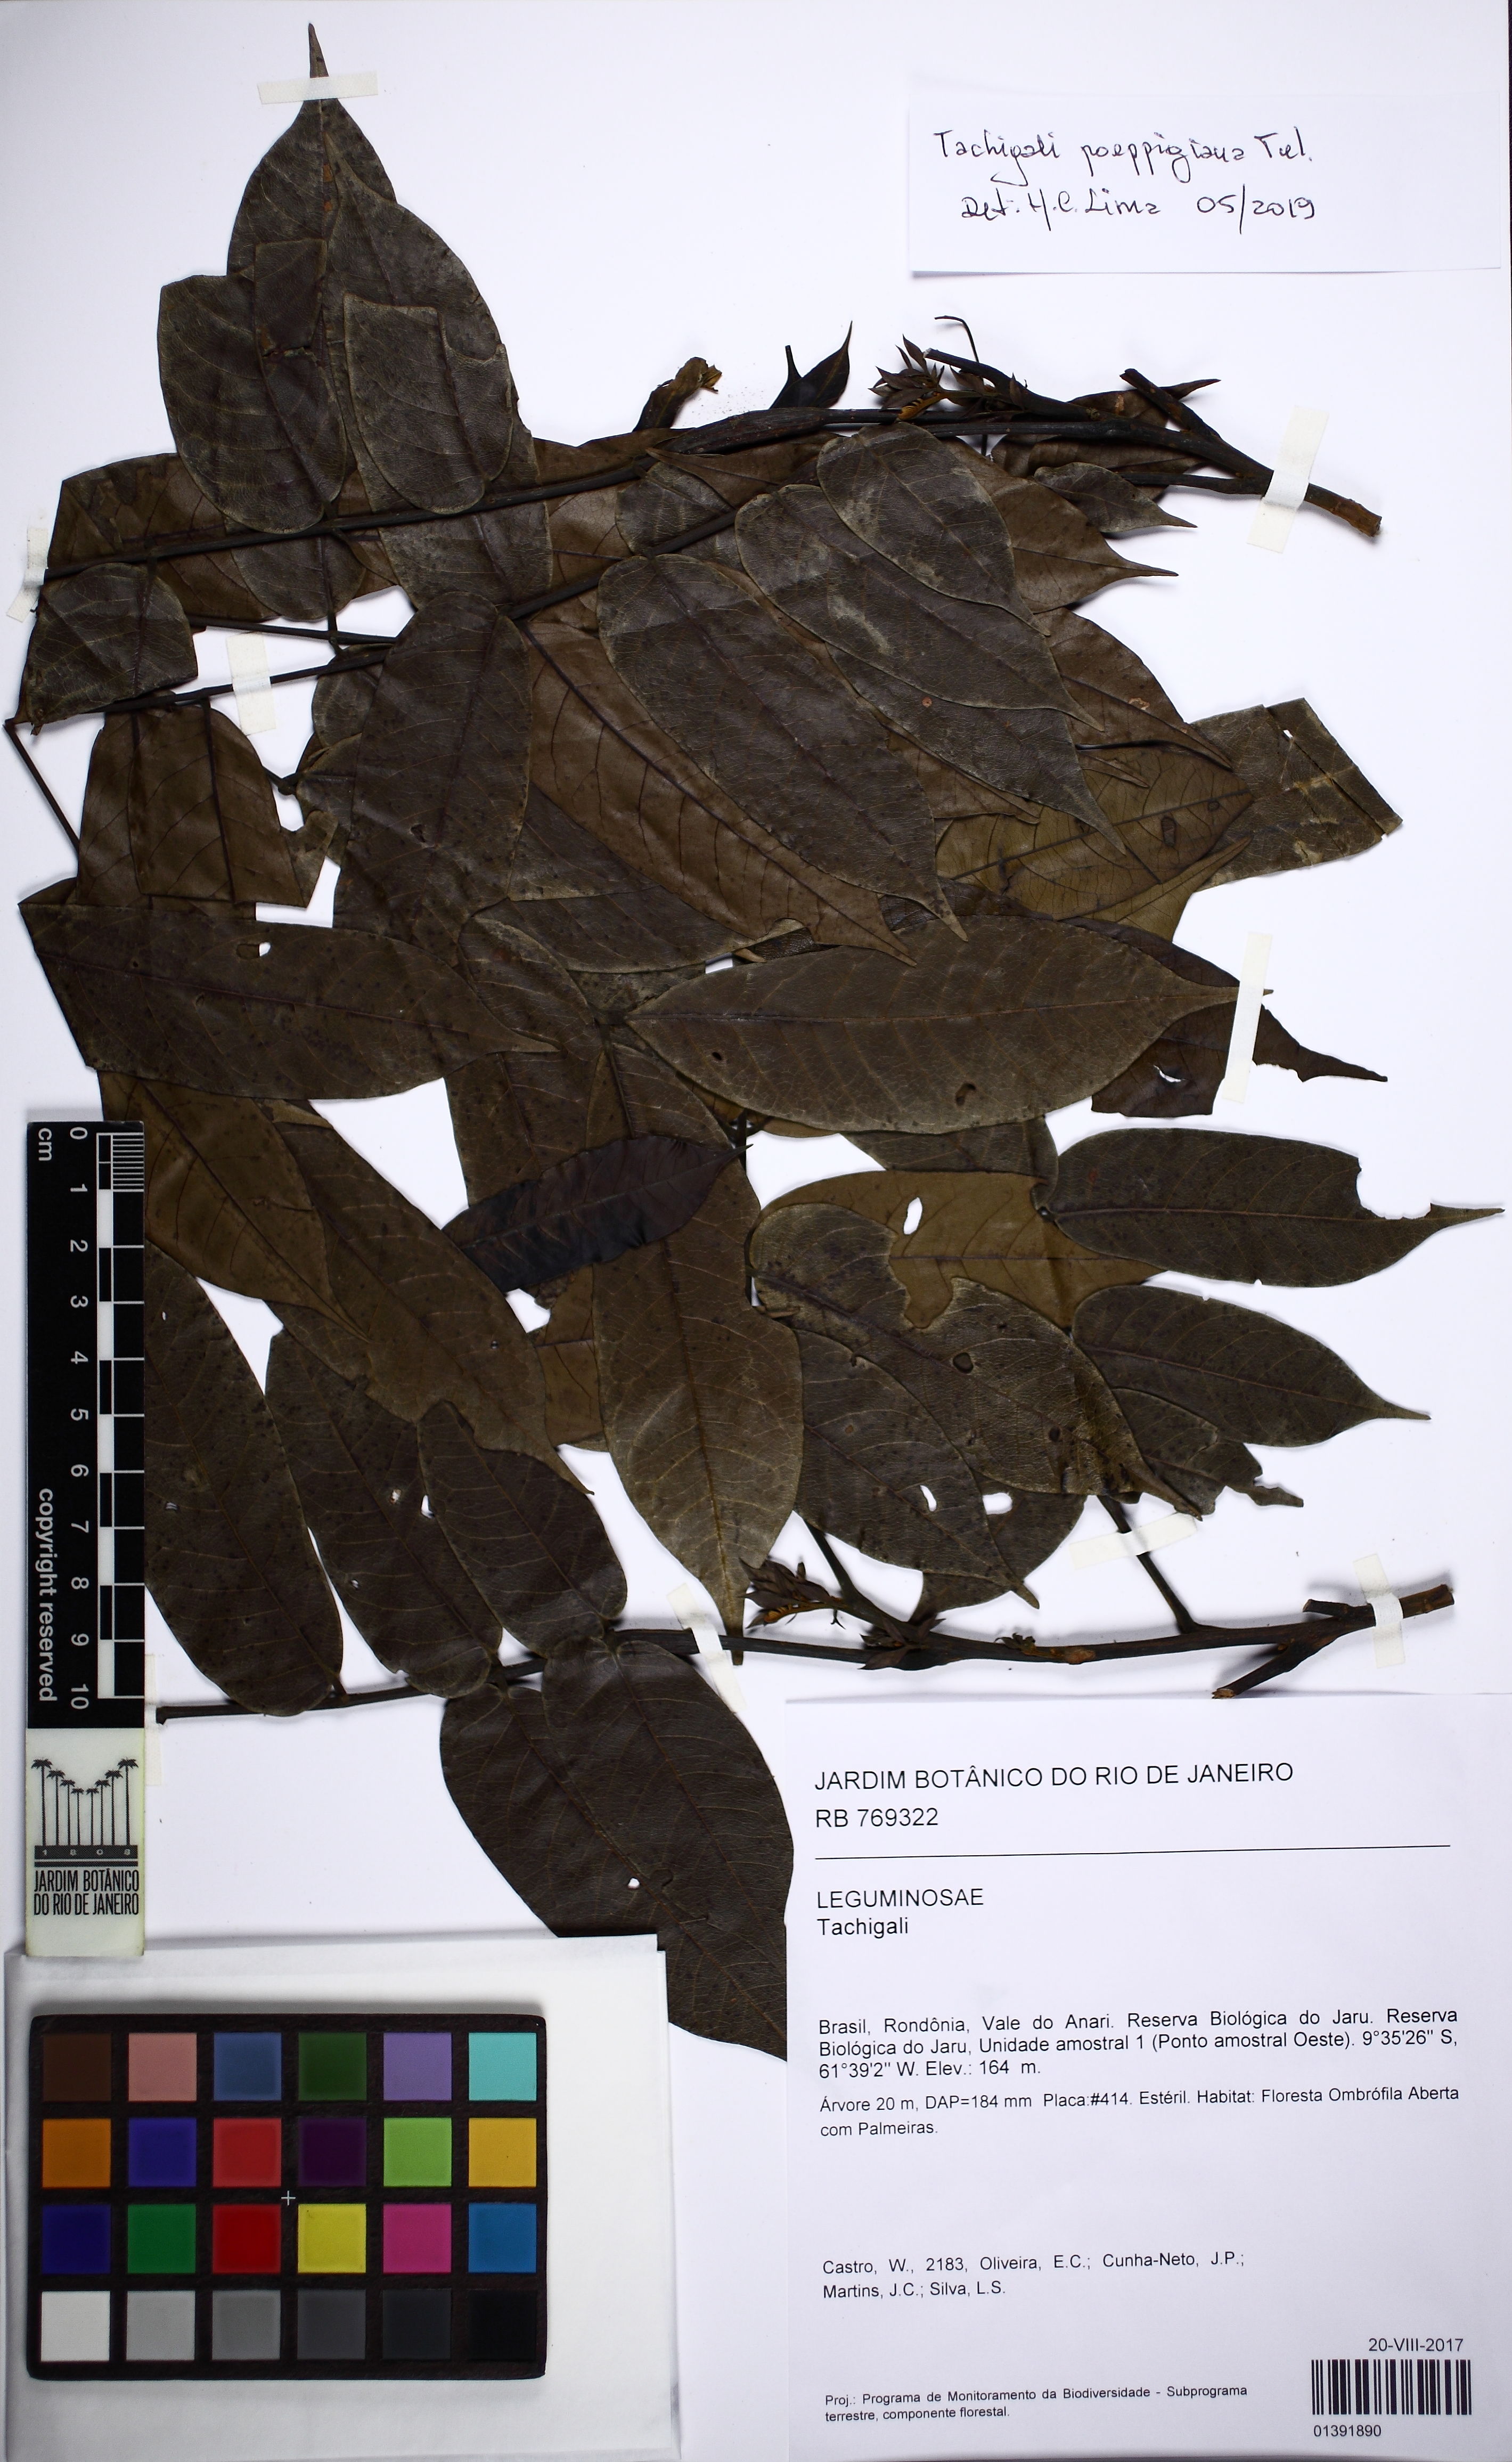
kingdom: Plantae
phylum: Tracheophyta
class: Magnoliopsida
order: Fabales
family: Fabaceae
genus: Tachigali
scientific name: Tachigali poeppigiana
